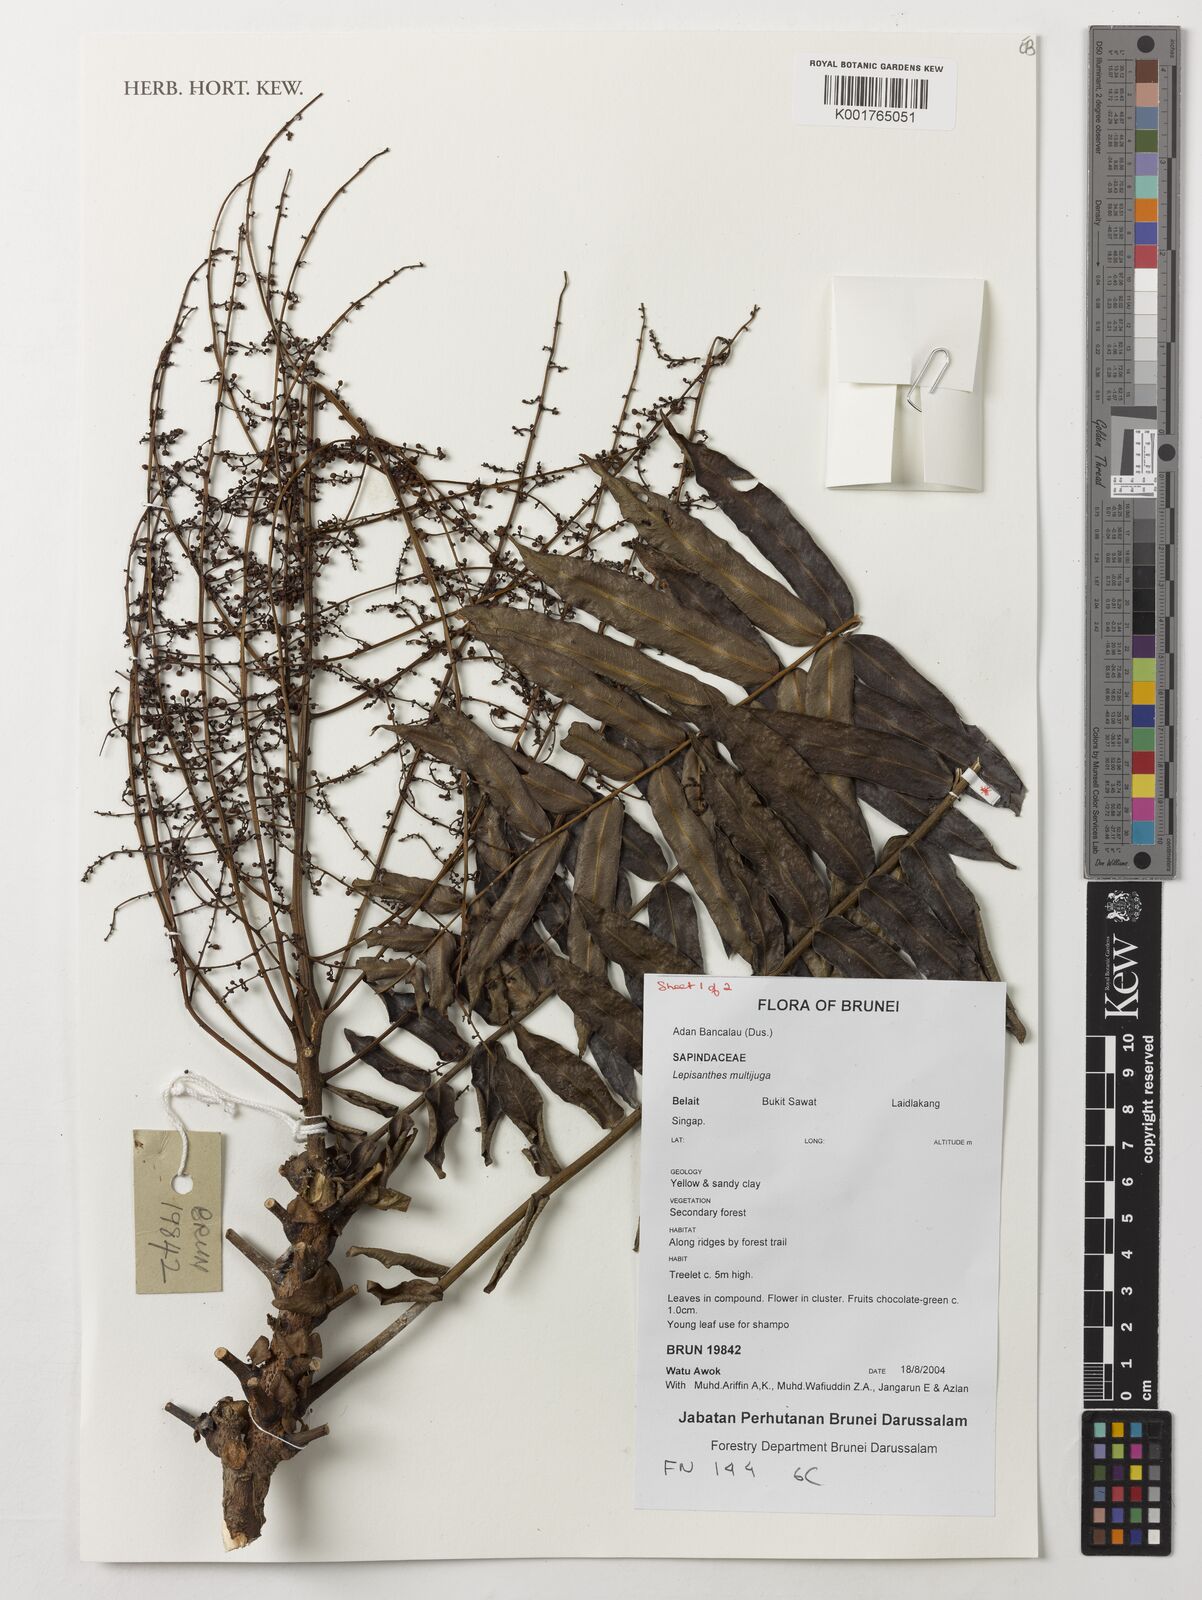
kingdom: Plantae
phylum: Tracheophyta
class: Magnoliopsida
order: Sapindales
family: Sapindaceae
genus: Lepisanthes
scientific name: Lepisanthes multijuga
